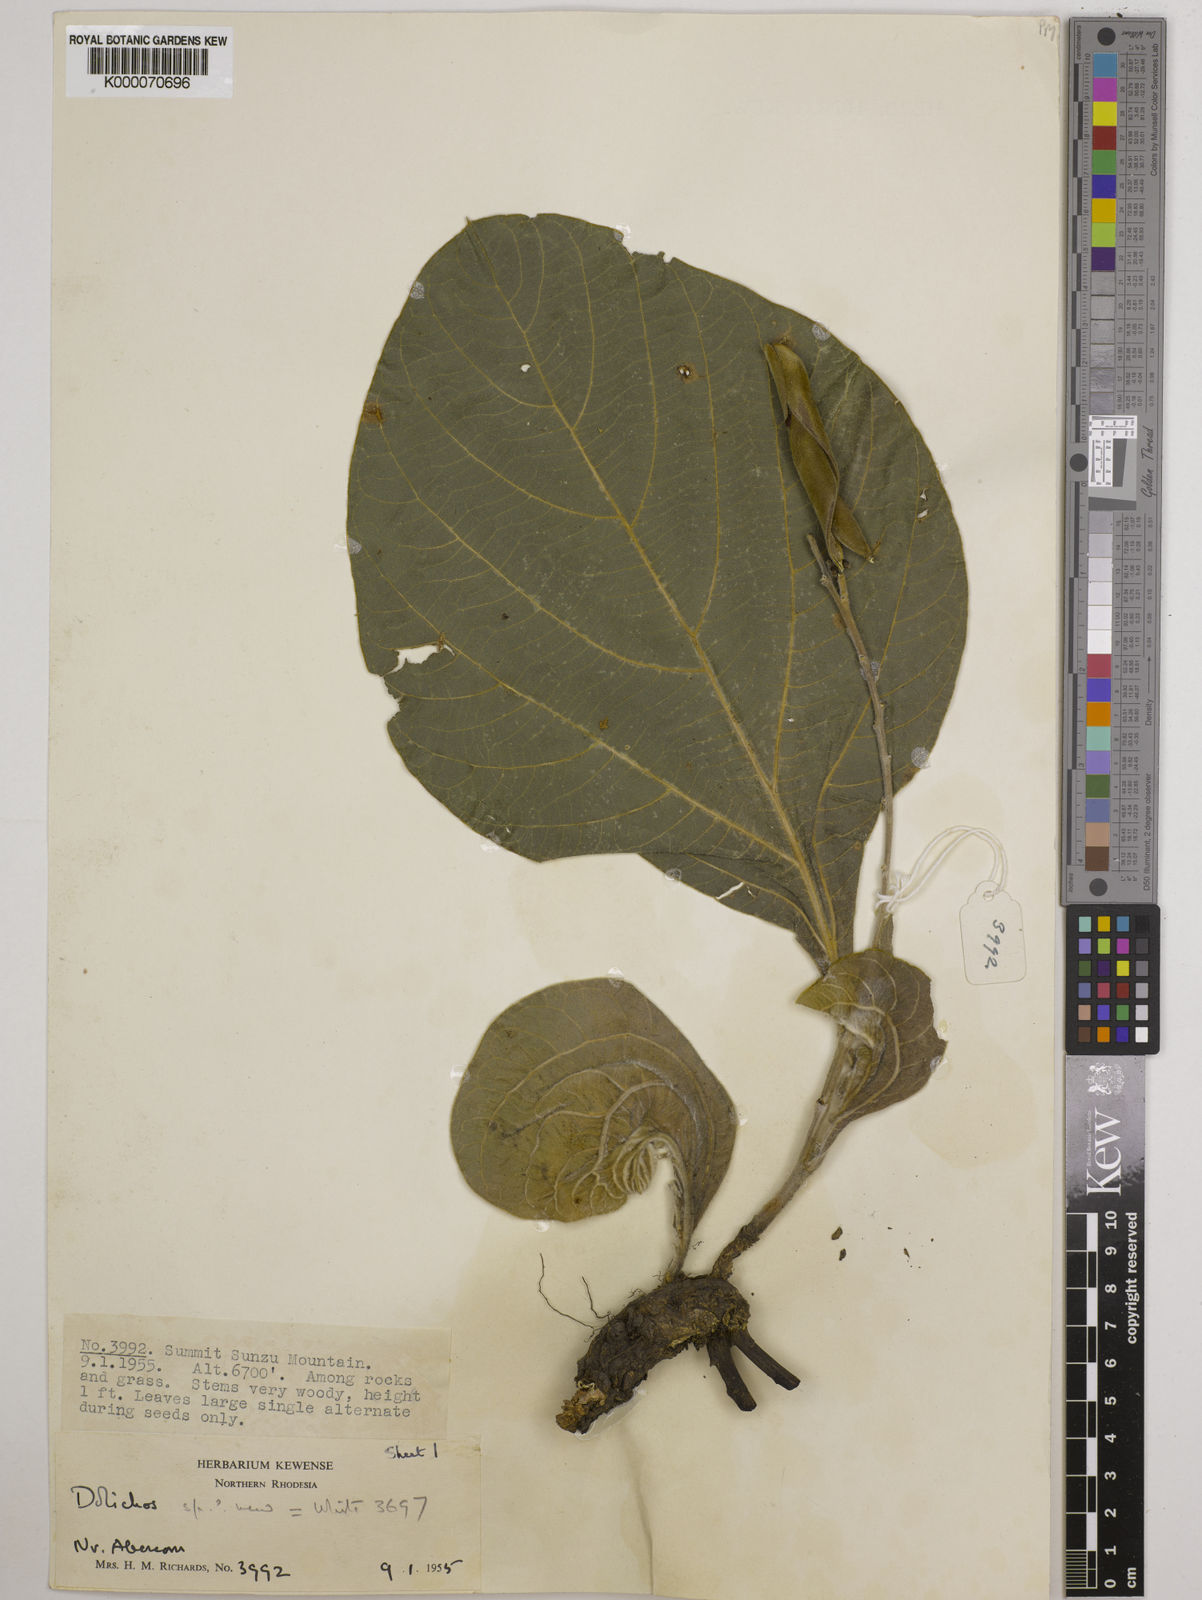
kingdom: Plantae
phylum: Tracheophyta
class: Magnoliopsida
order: Fabales
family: Fabaceae
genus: Dolichos
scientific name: Dolichos ichthyophone
